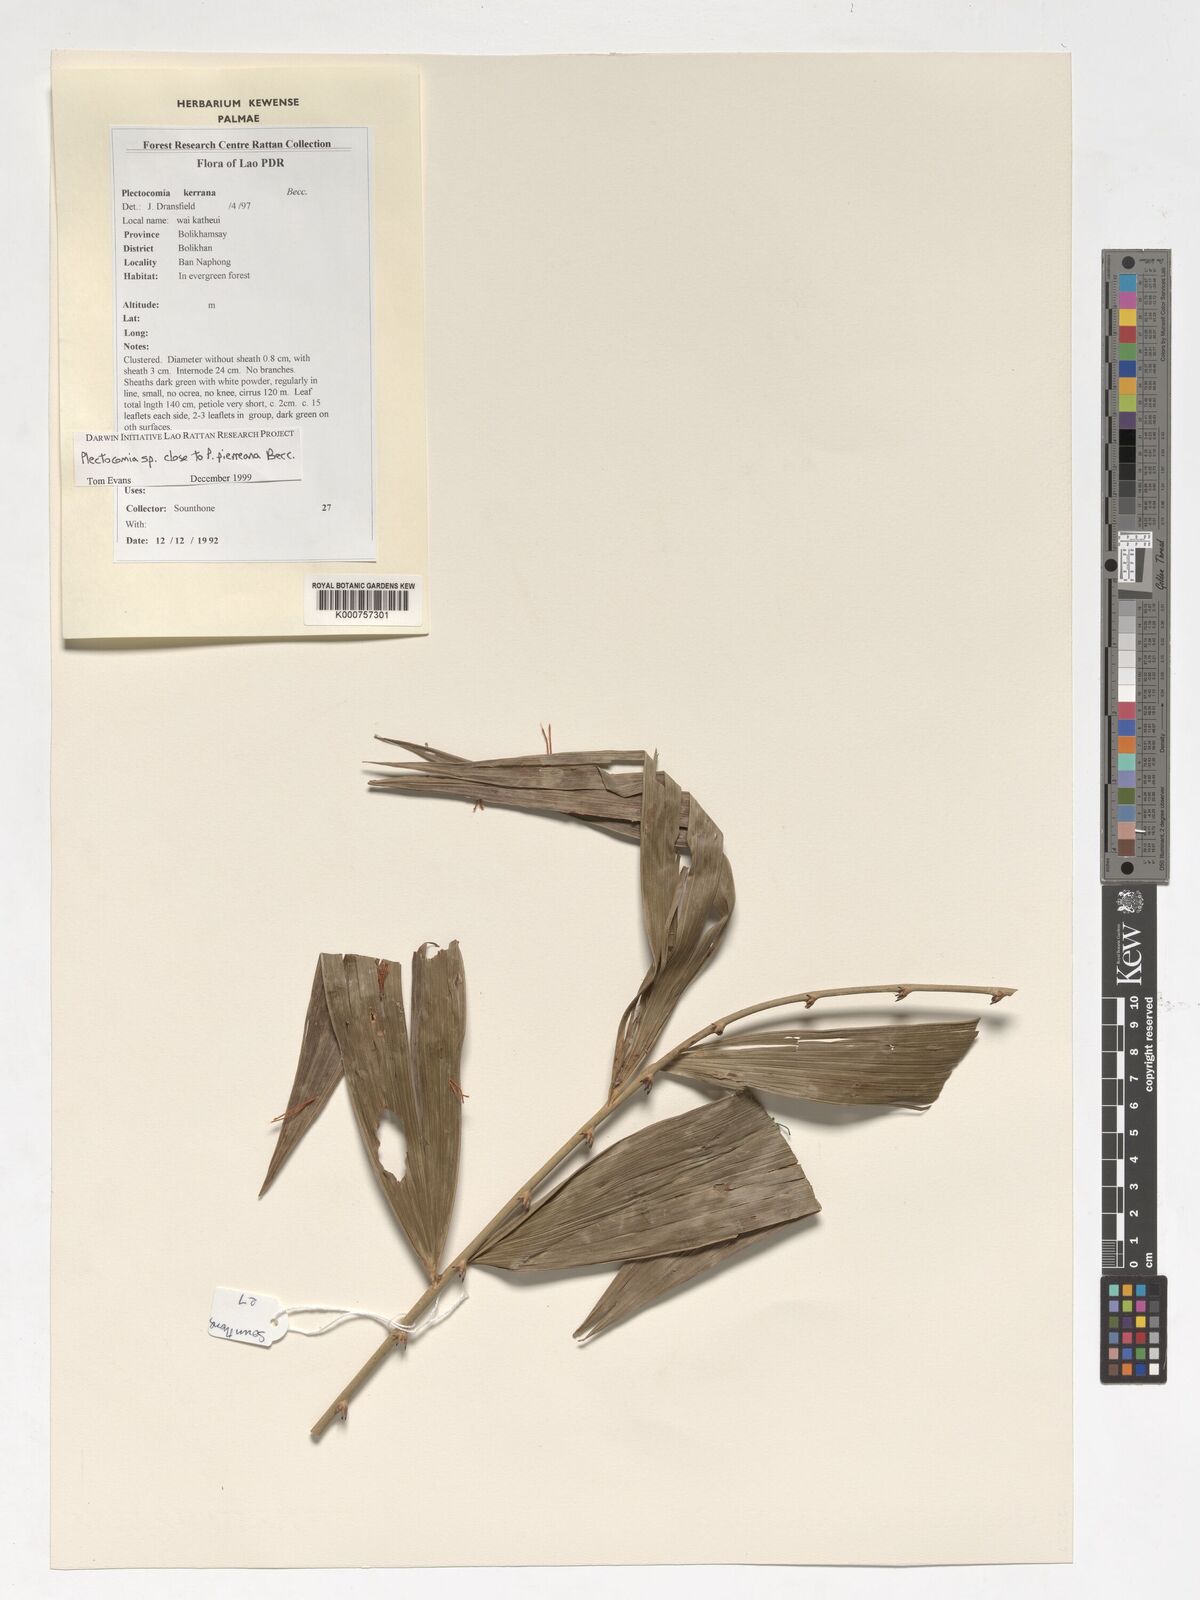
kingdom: Plantae
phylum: Tracheophyta
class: Liliopsida
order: Arecales
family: Arecaceae
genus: Plectocomia
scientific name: Plectocomia pierreana
